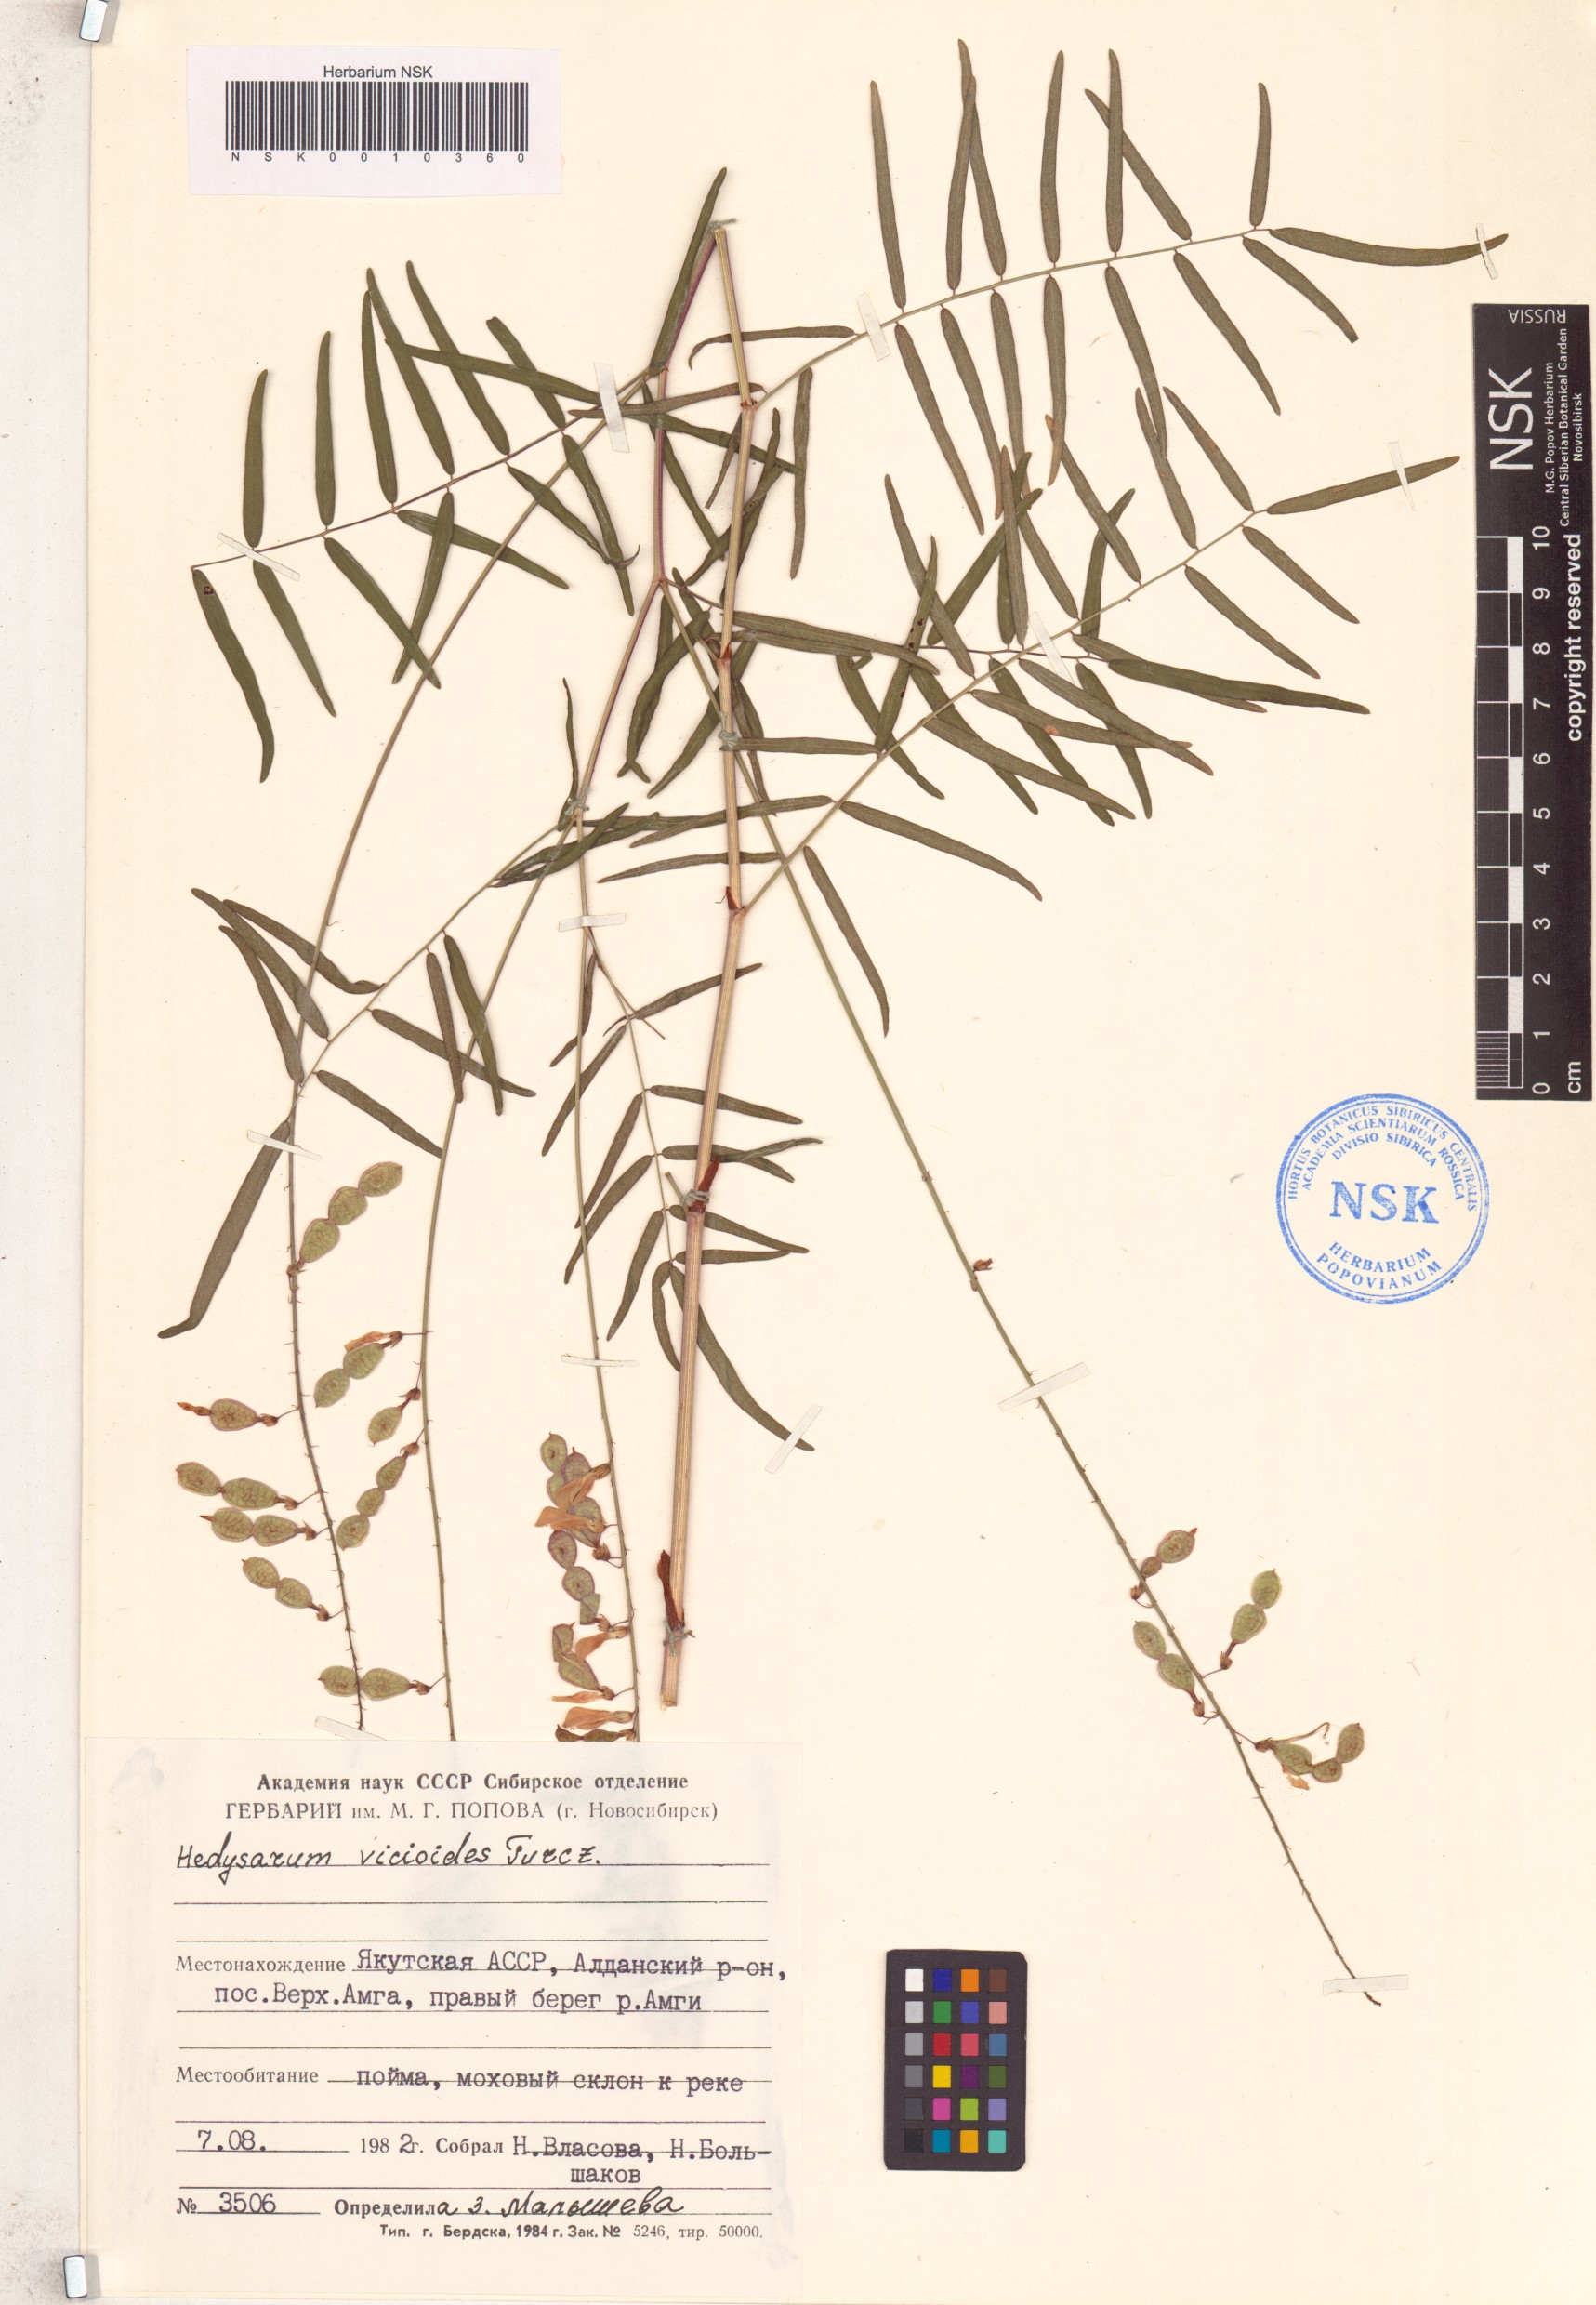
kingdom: Plantae
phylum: Tracheophyta
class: Magnoliopsida
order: Fabales
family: Fabaceae
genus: Hedysarum
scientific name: Hedysarum vicioides
